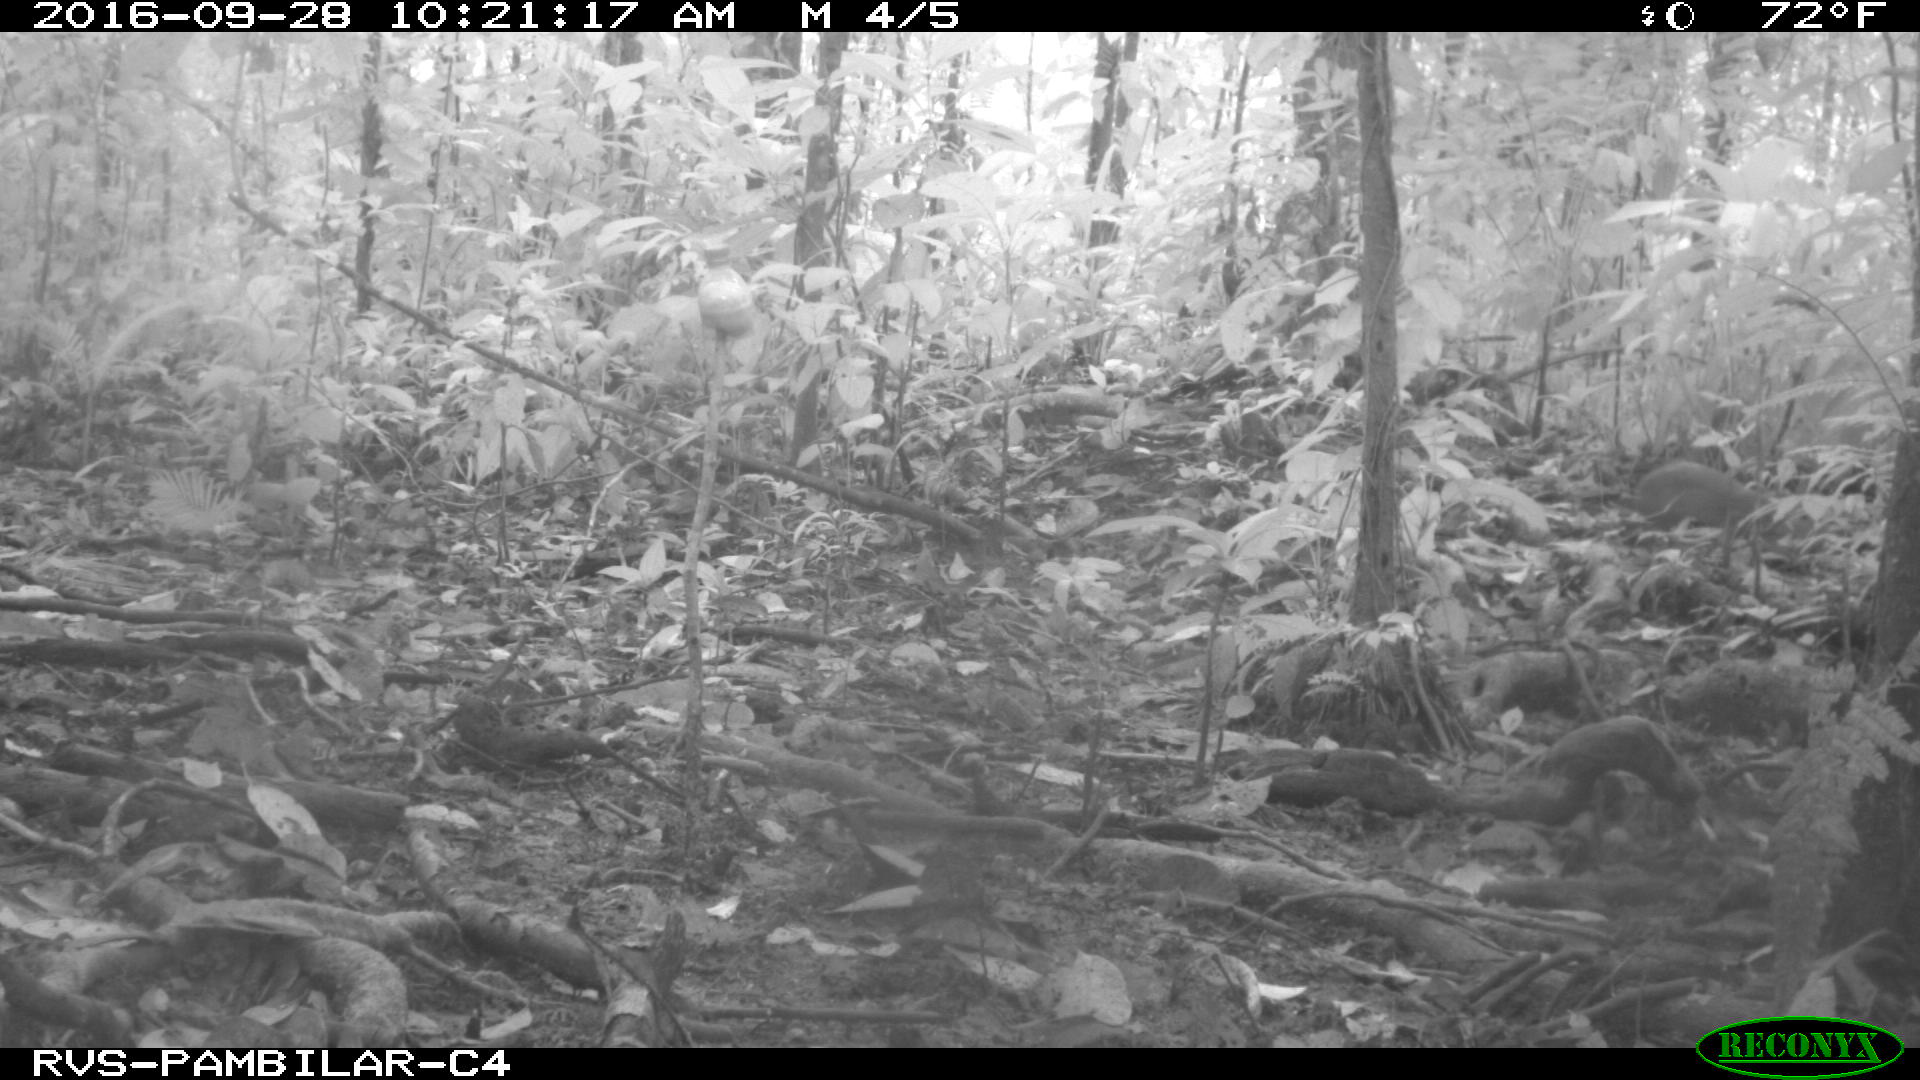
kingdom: Animalia
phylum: Chordata
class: Mammalia
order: Rodentia
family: Dasyproctidae
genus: Dasyprocta
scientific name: Dasyprocta punctata
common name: Central american agouti
